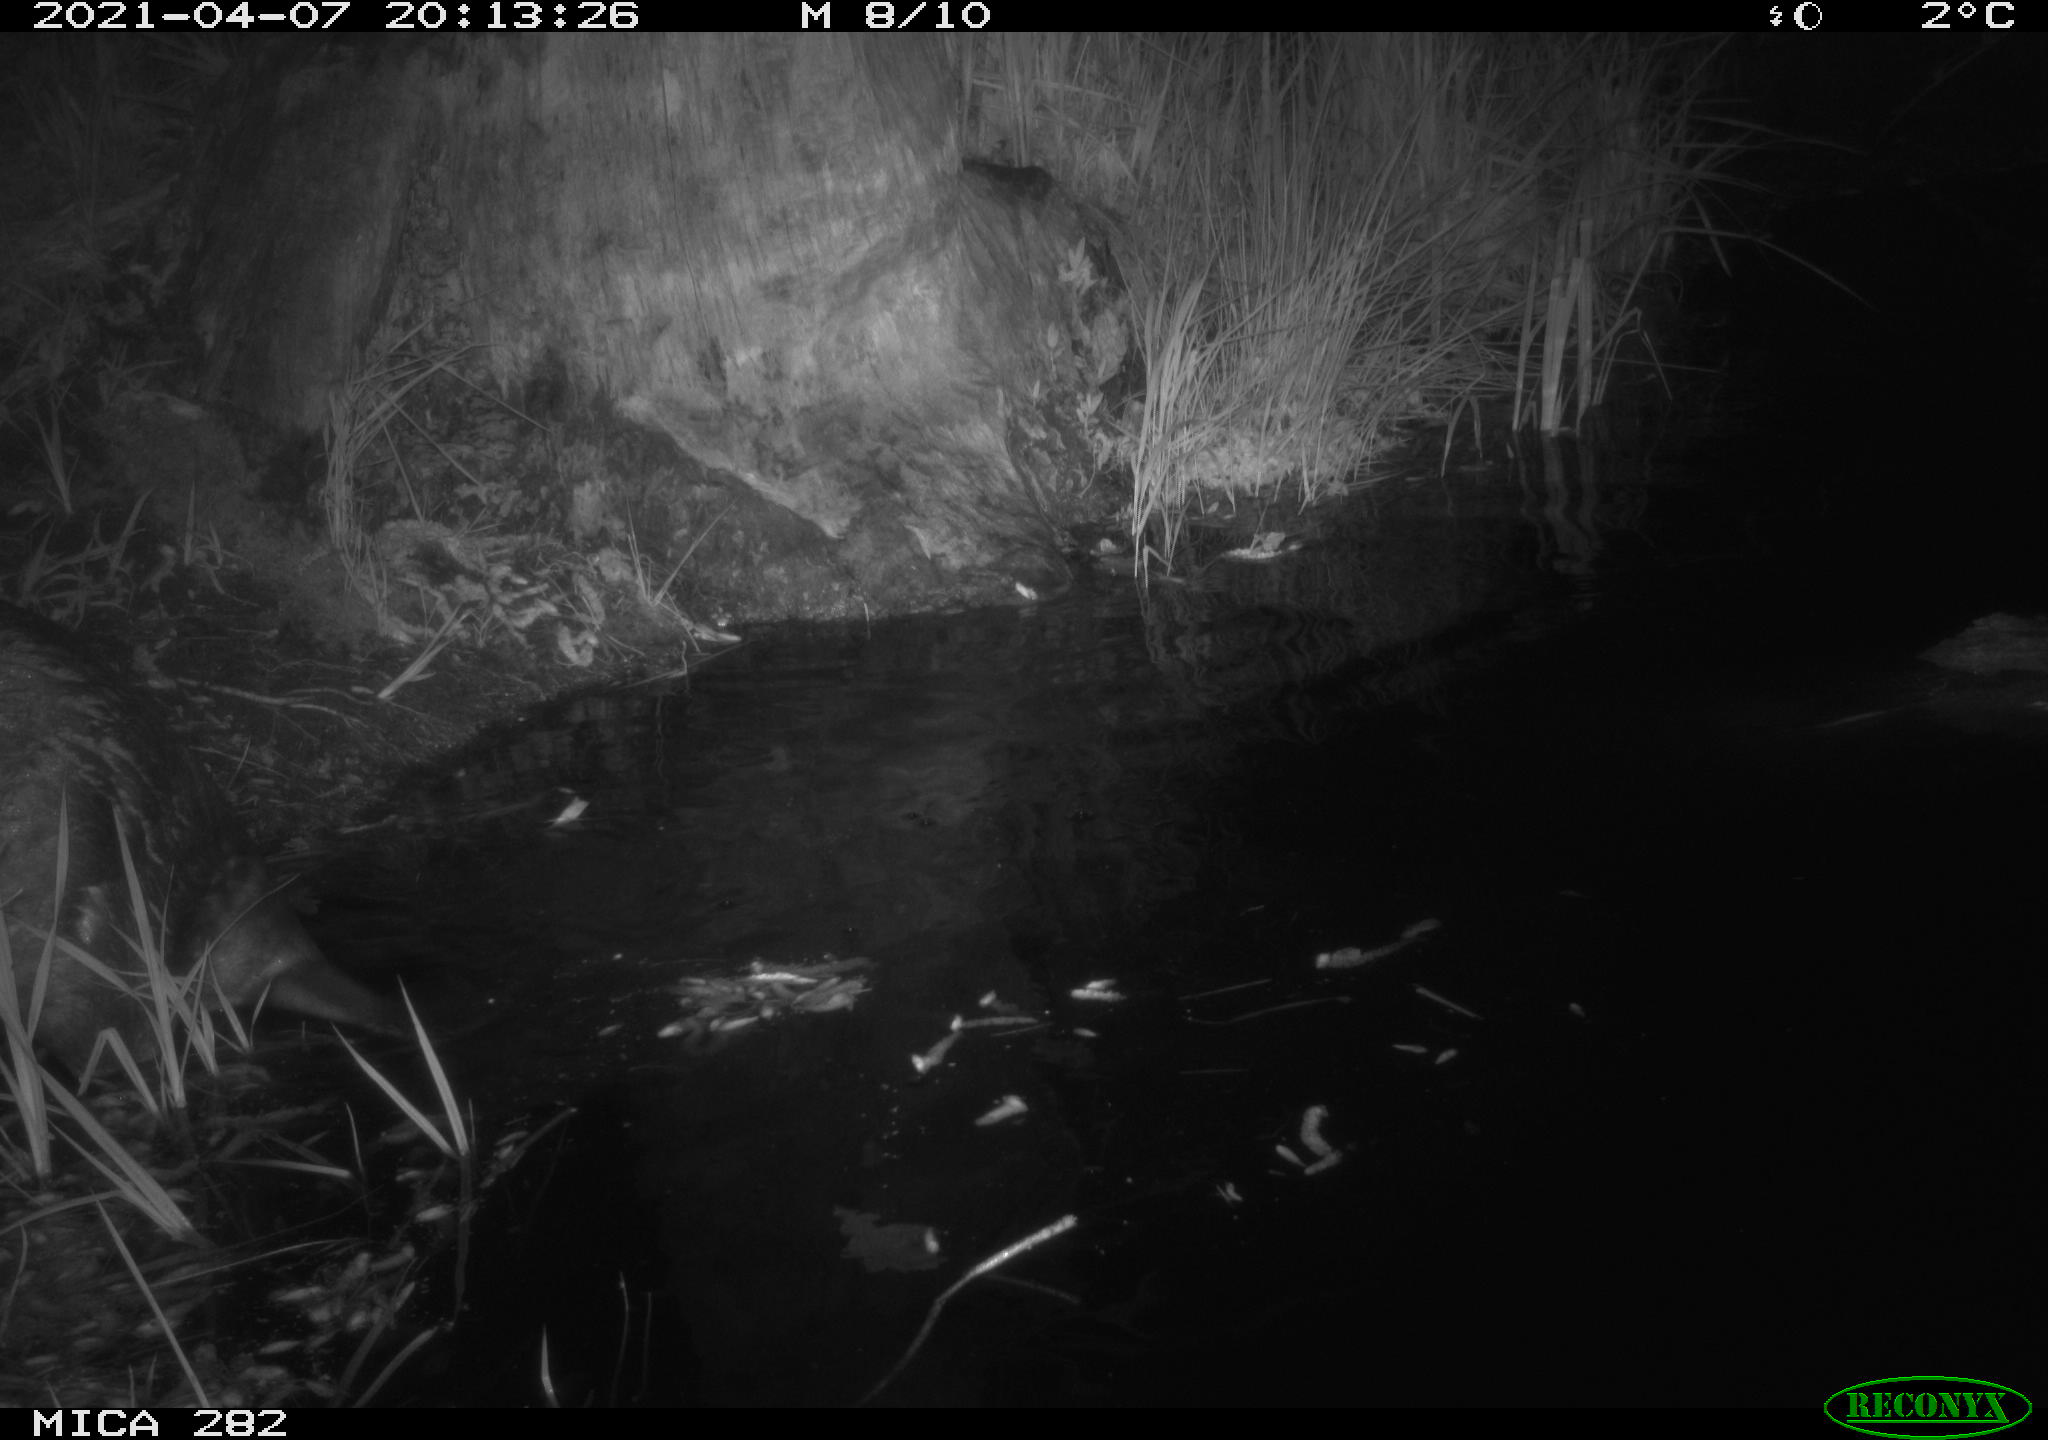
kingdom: Animalia
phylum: Chordata
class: Mammalia
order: Rodentia
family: Castoridae
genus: Castor
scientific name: Castor fiber
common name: Eurasian beaver
